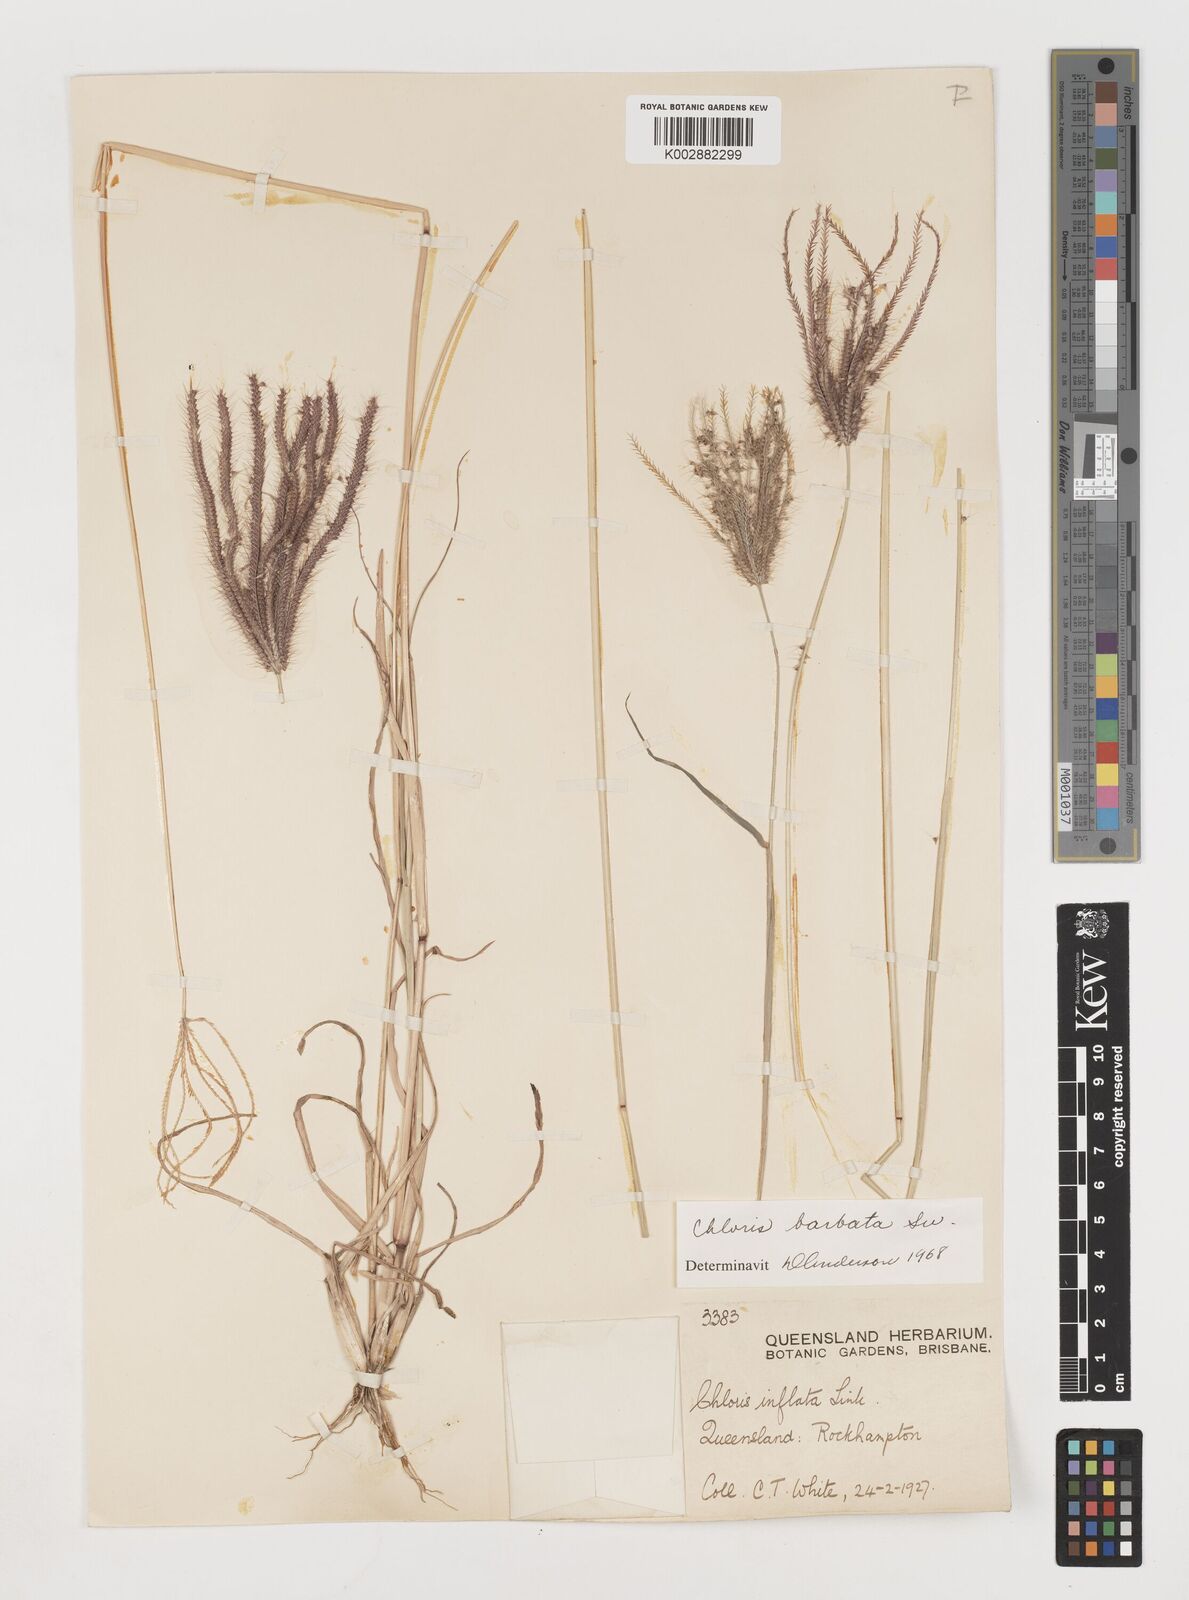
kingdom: Plantae
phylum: Tracheophyta
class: Liliopsida
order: Poales
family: Poaceae
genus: Chloris
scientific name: Chloris barbata
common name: Swollen fingergrass
